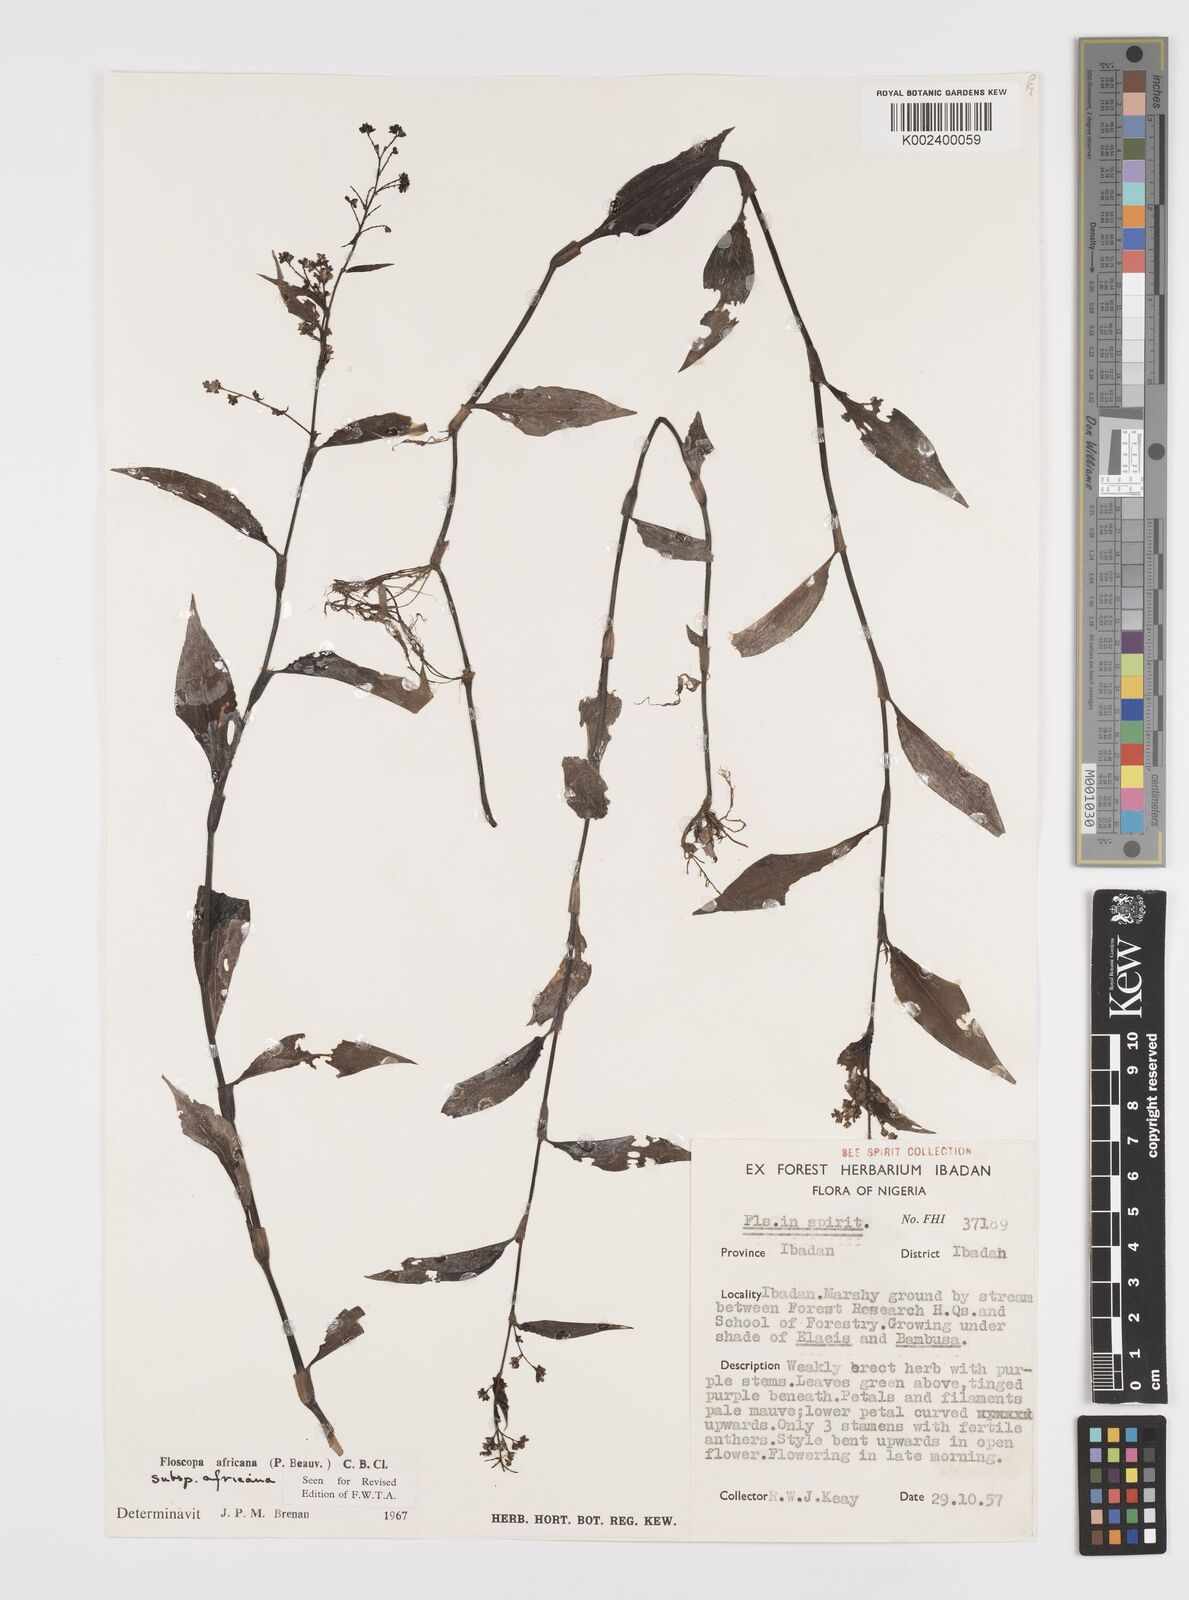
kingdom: Plantae
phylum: Tracheophyta
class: Liliopsida
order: Commelinales
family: Commelinaceae
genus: Floscopa
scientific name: Floscopa africana
